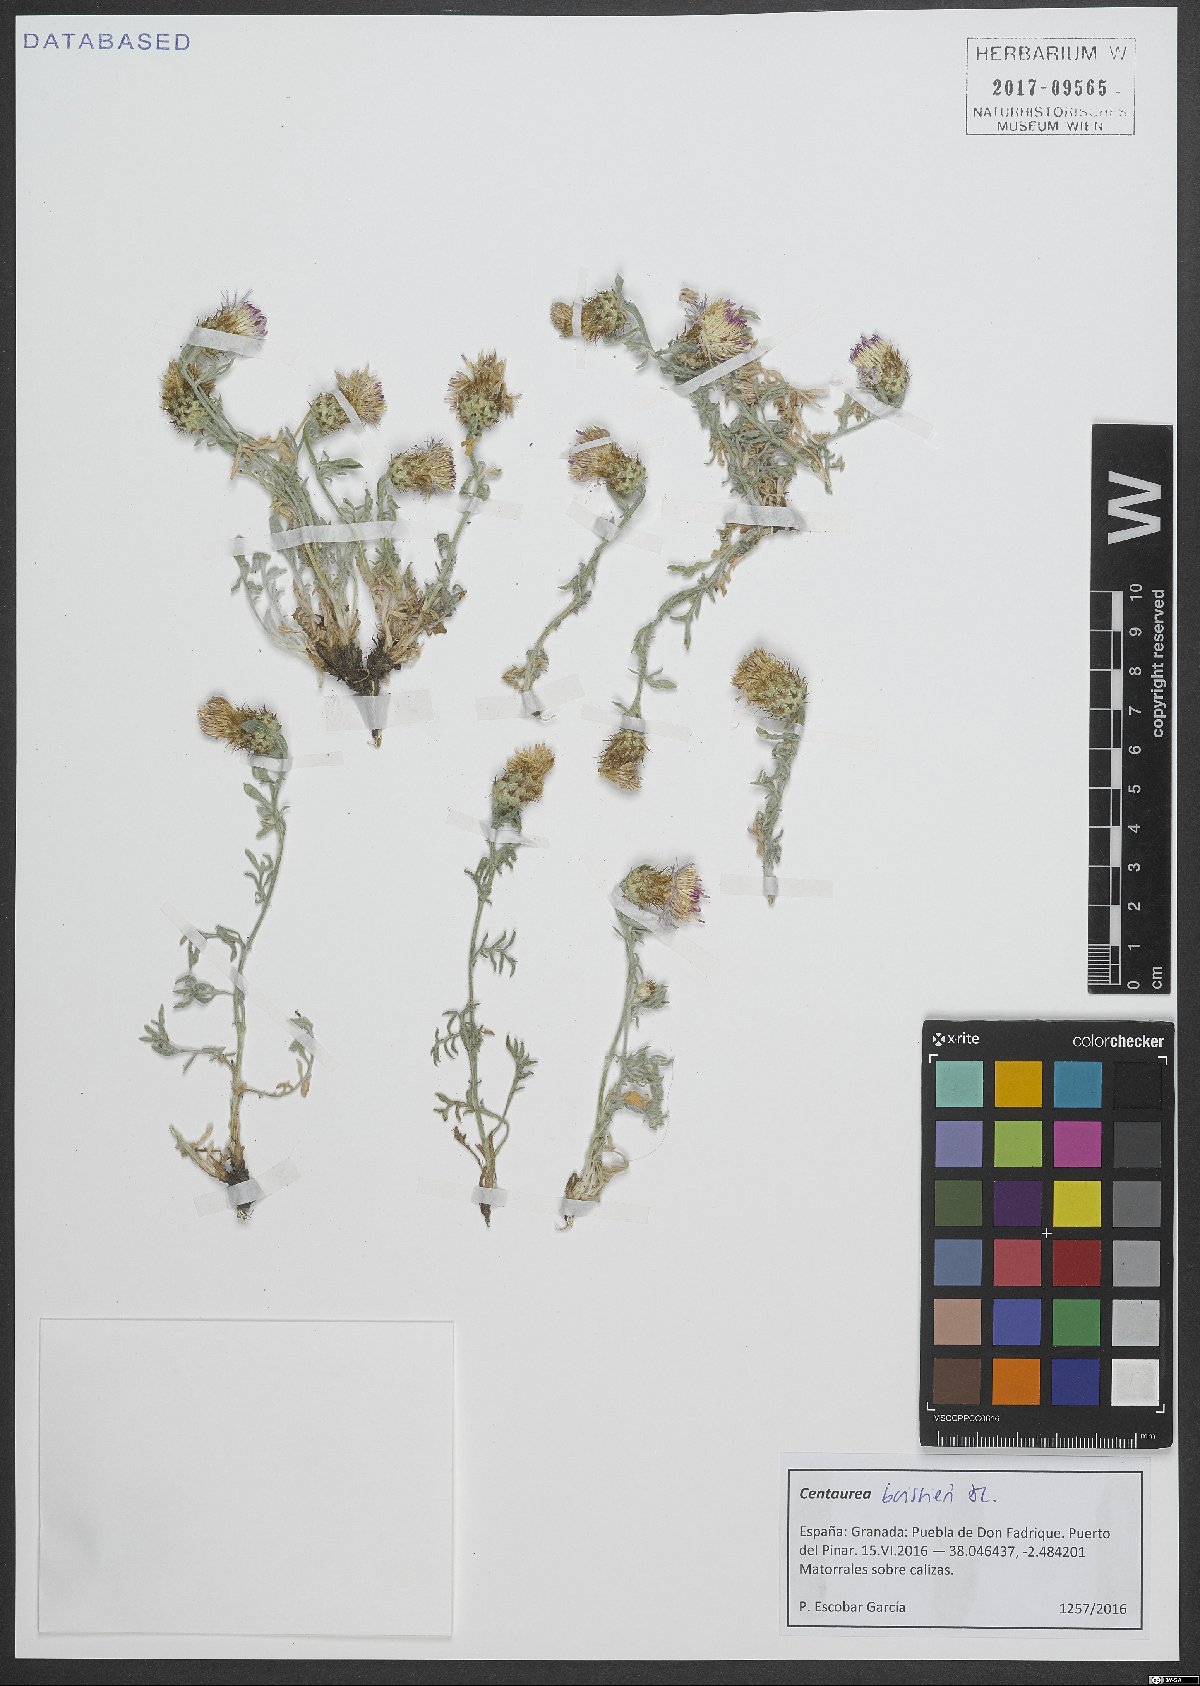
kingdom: Plantae
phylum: Tracheophyta
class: Magnoliopsida
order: Asterales
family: Asteraceae
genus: Centaurea
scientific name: Centaurea boissieri
